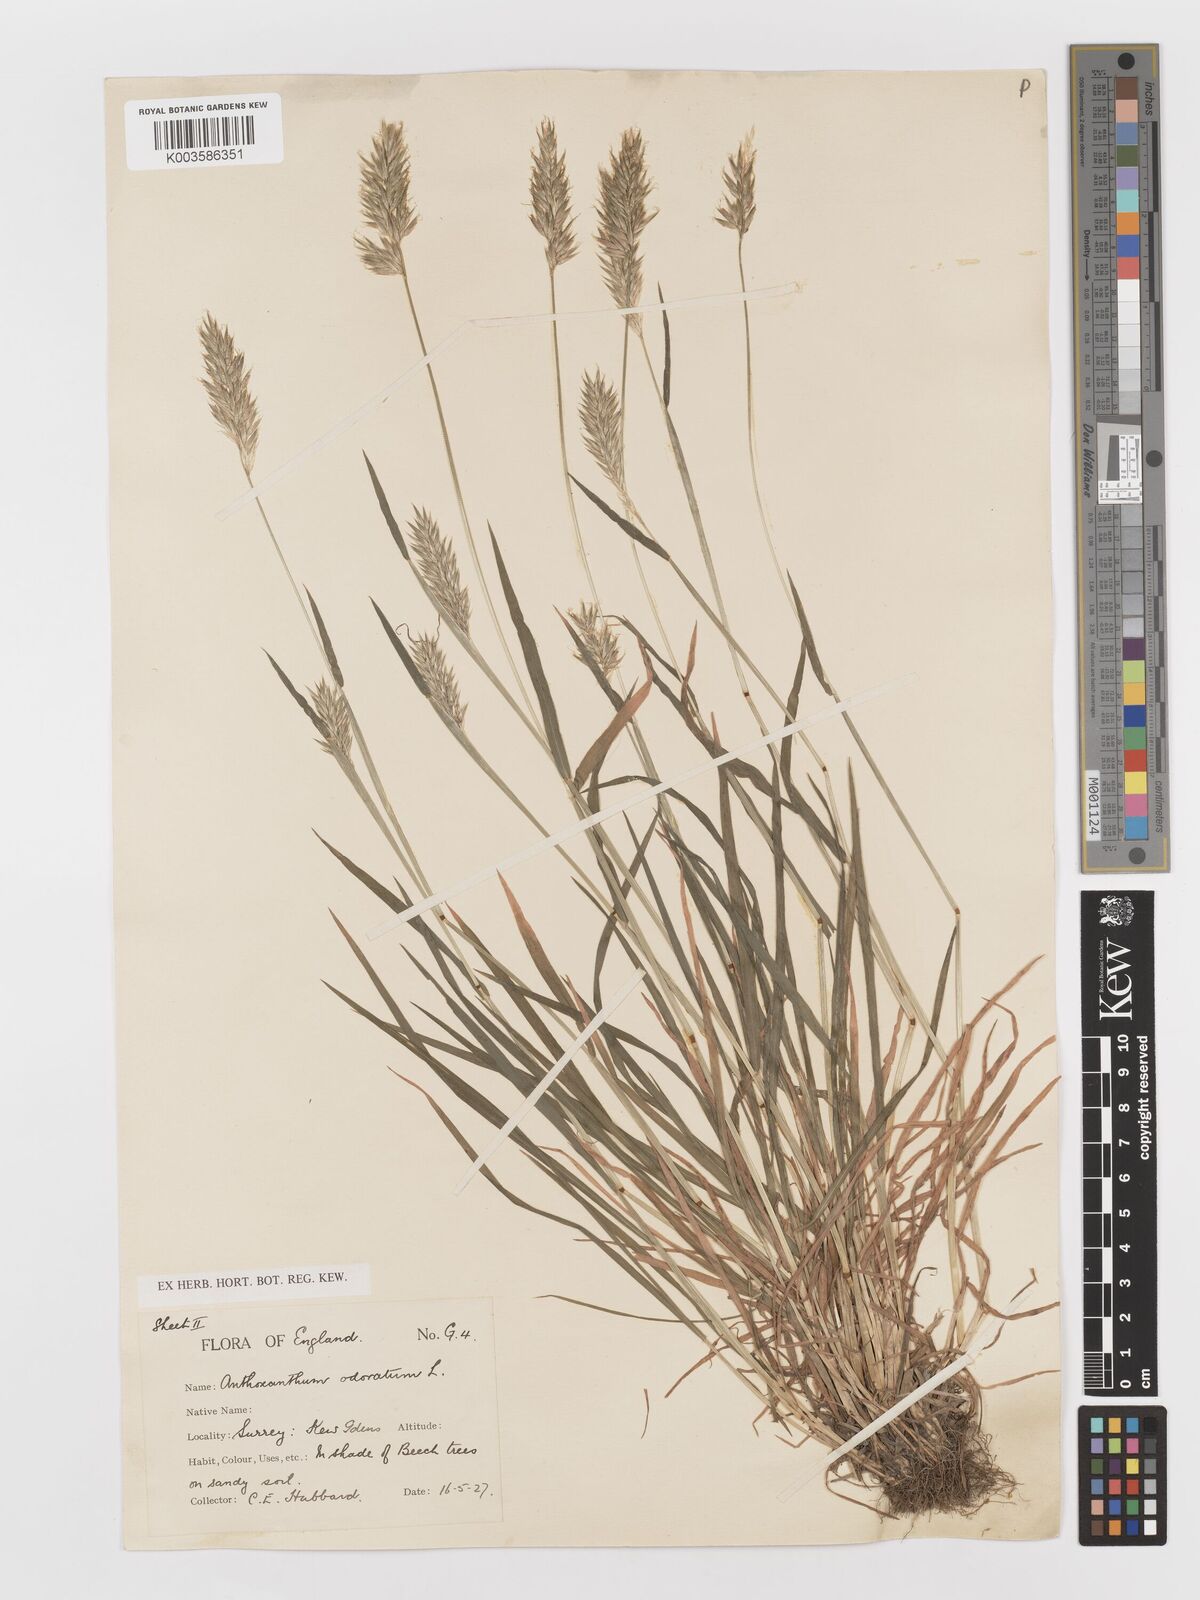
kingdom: Plantae
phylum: Tracheophyta
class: Liliopsida
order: Poales
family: Poaceae
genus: Anthoxanthum
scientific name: Anthoxanthum odoratum
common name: Sweet vernalgrass
